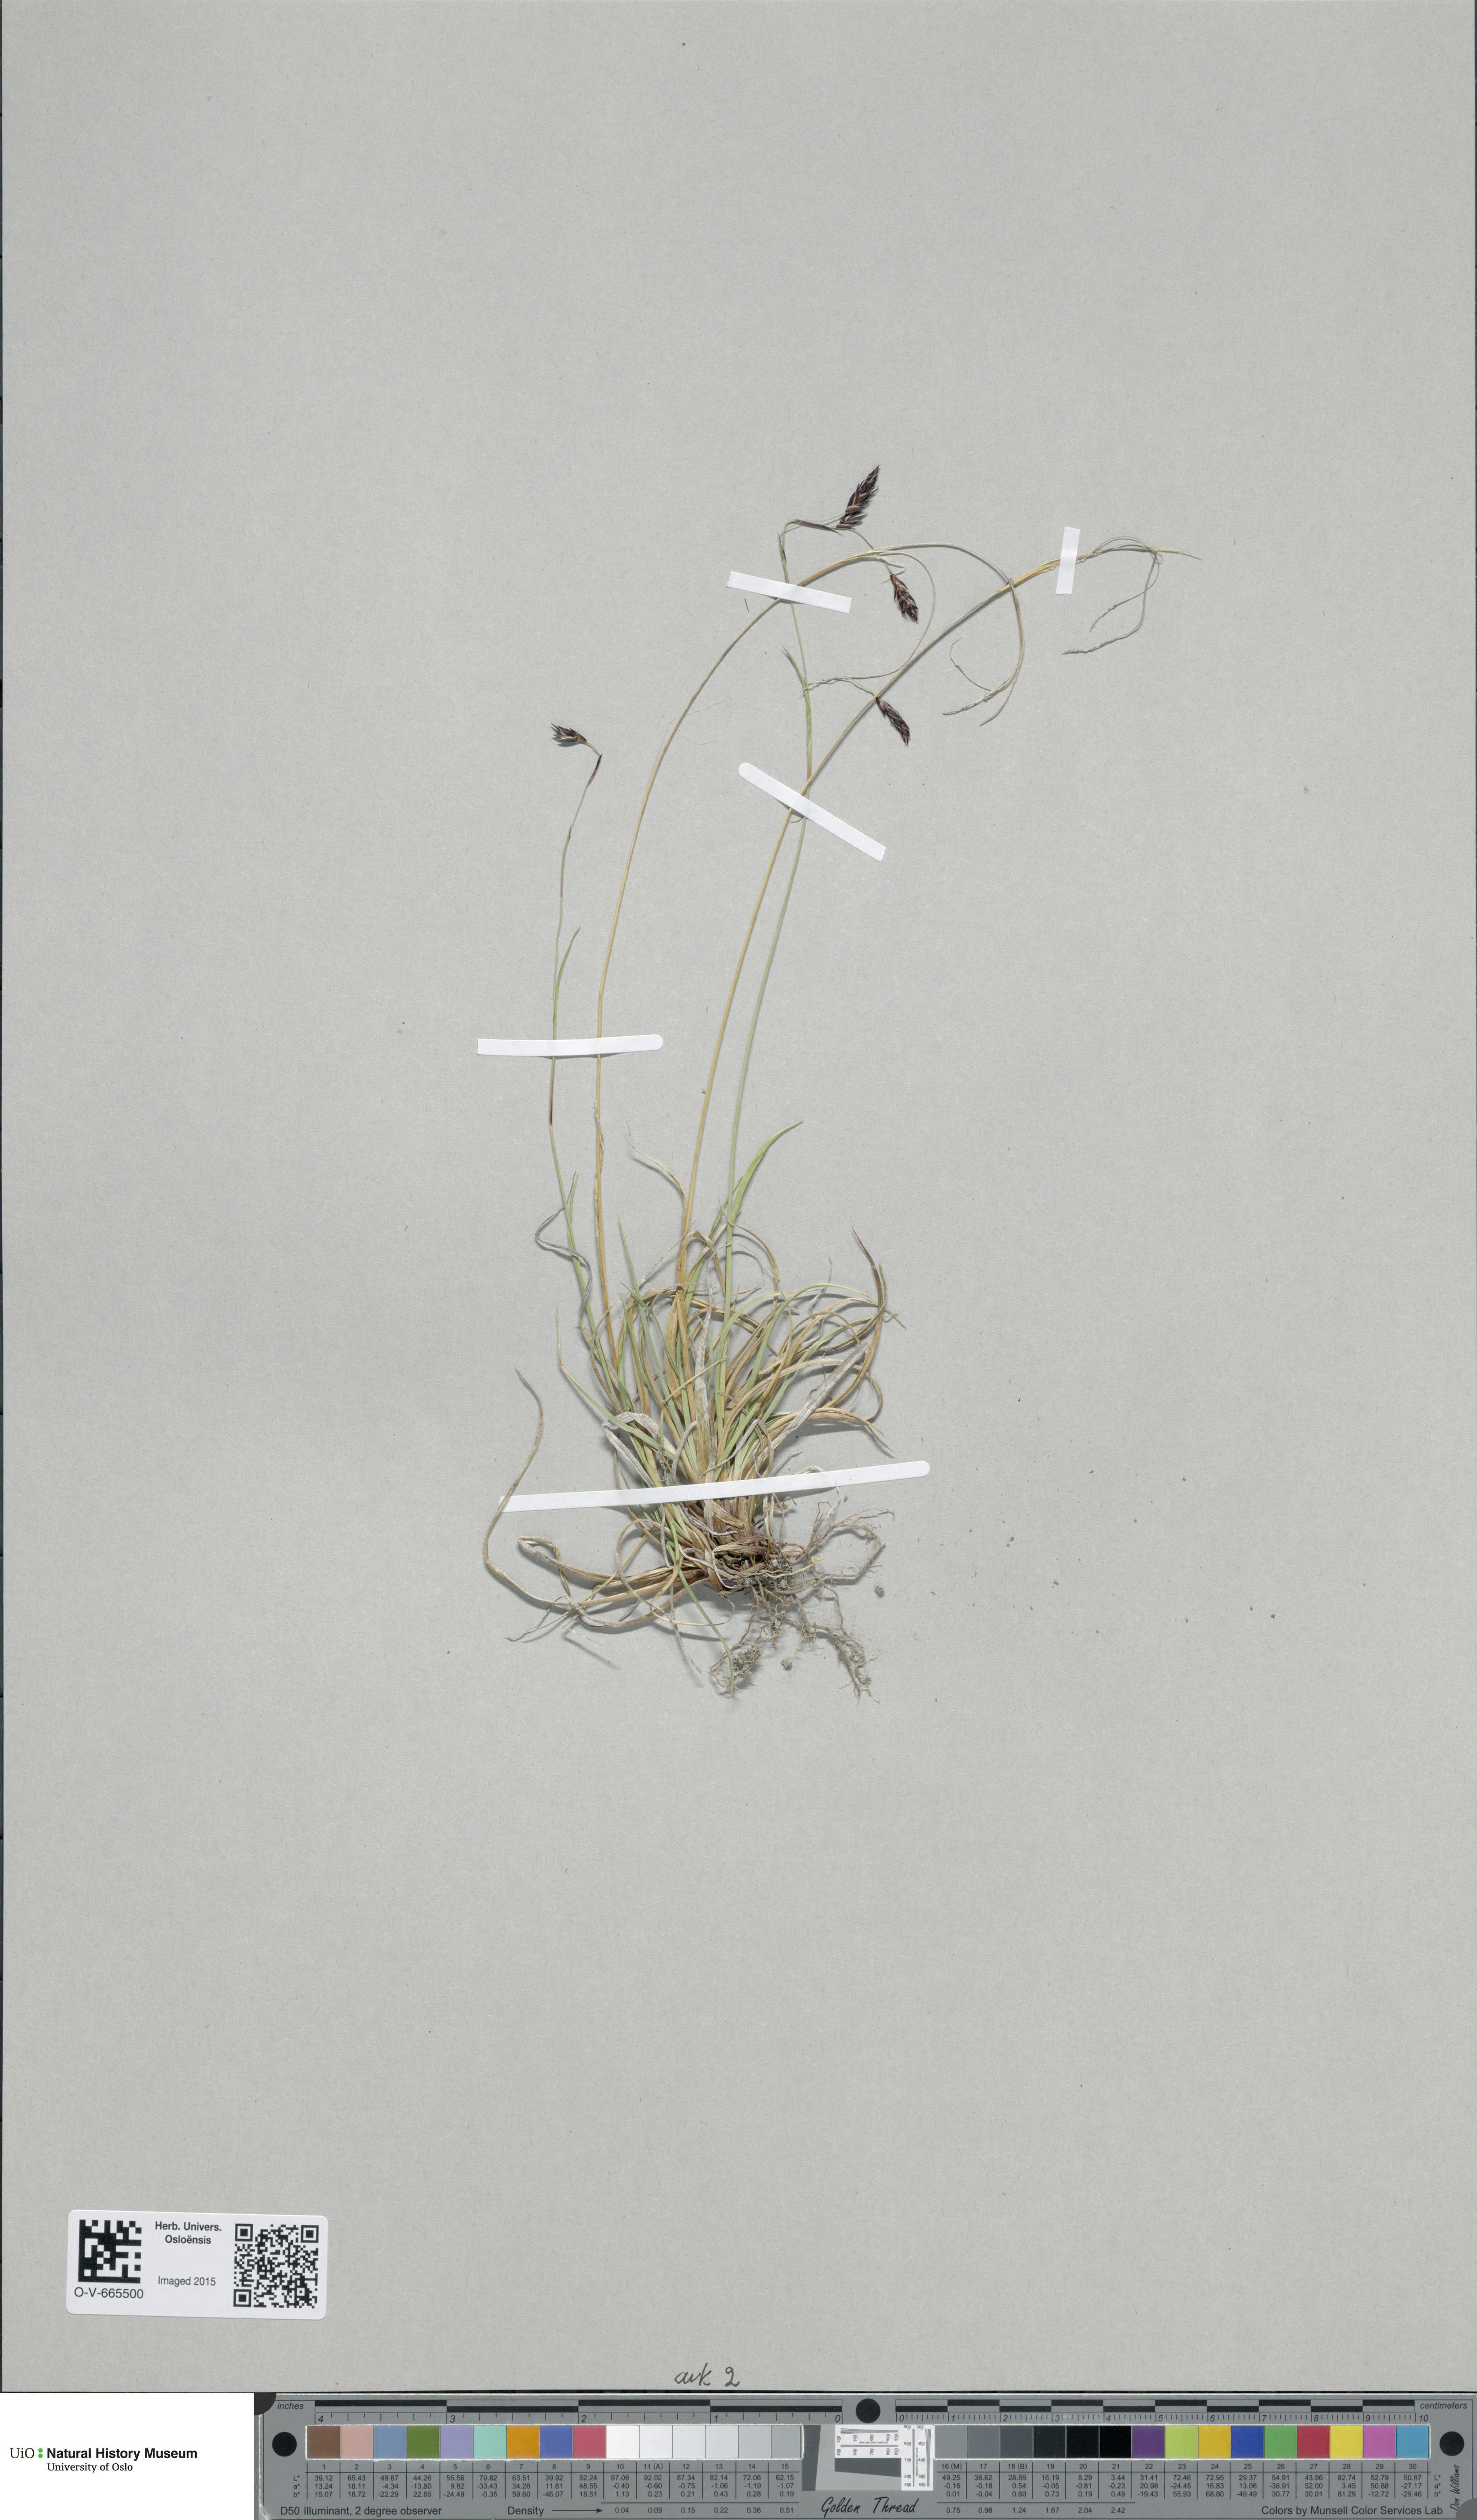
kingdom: Plantae
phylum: Tracheophyta
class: Magnoliopsida
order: Rosales
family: Rosaceae
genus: Alchemilla
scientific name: Alchemilla glaucescens
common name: Silky lady's mantle
